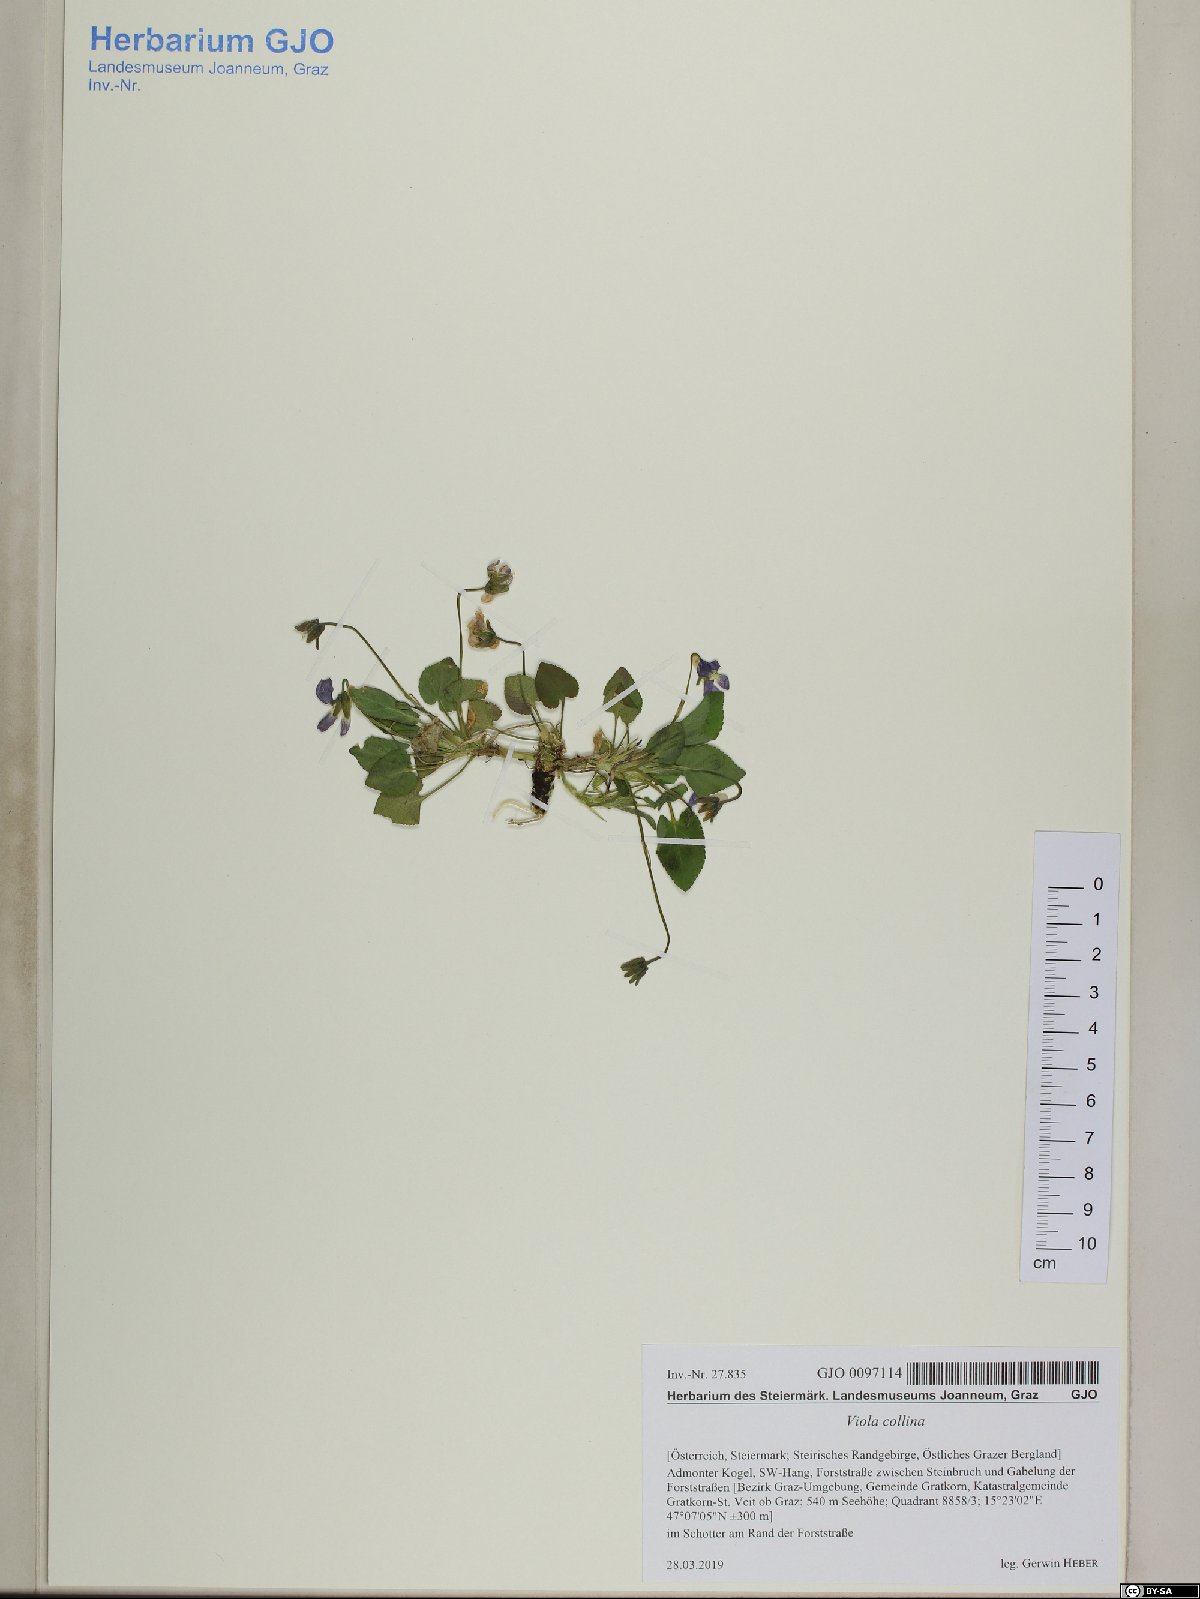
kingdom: Plantae
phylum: Tracheophyta
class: Magnoliopsida
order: Malpighiales
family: Violaceae
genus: Viola
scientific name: Viola collina
